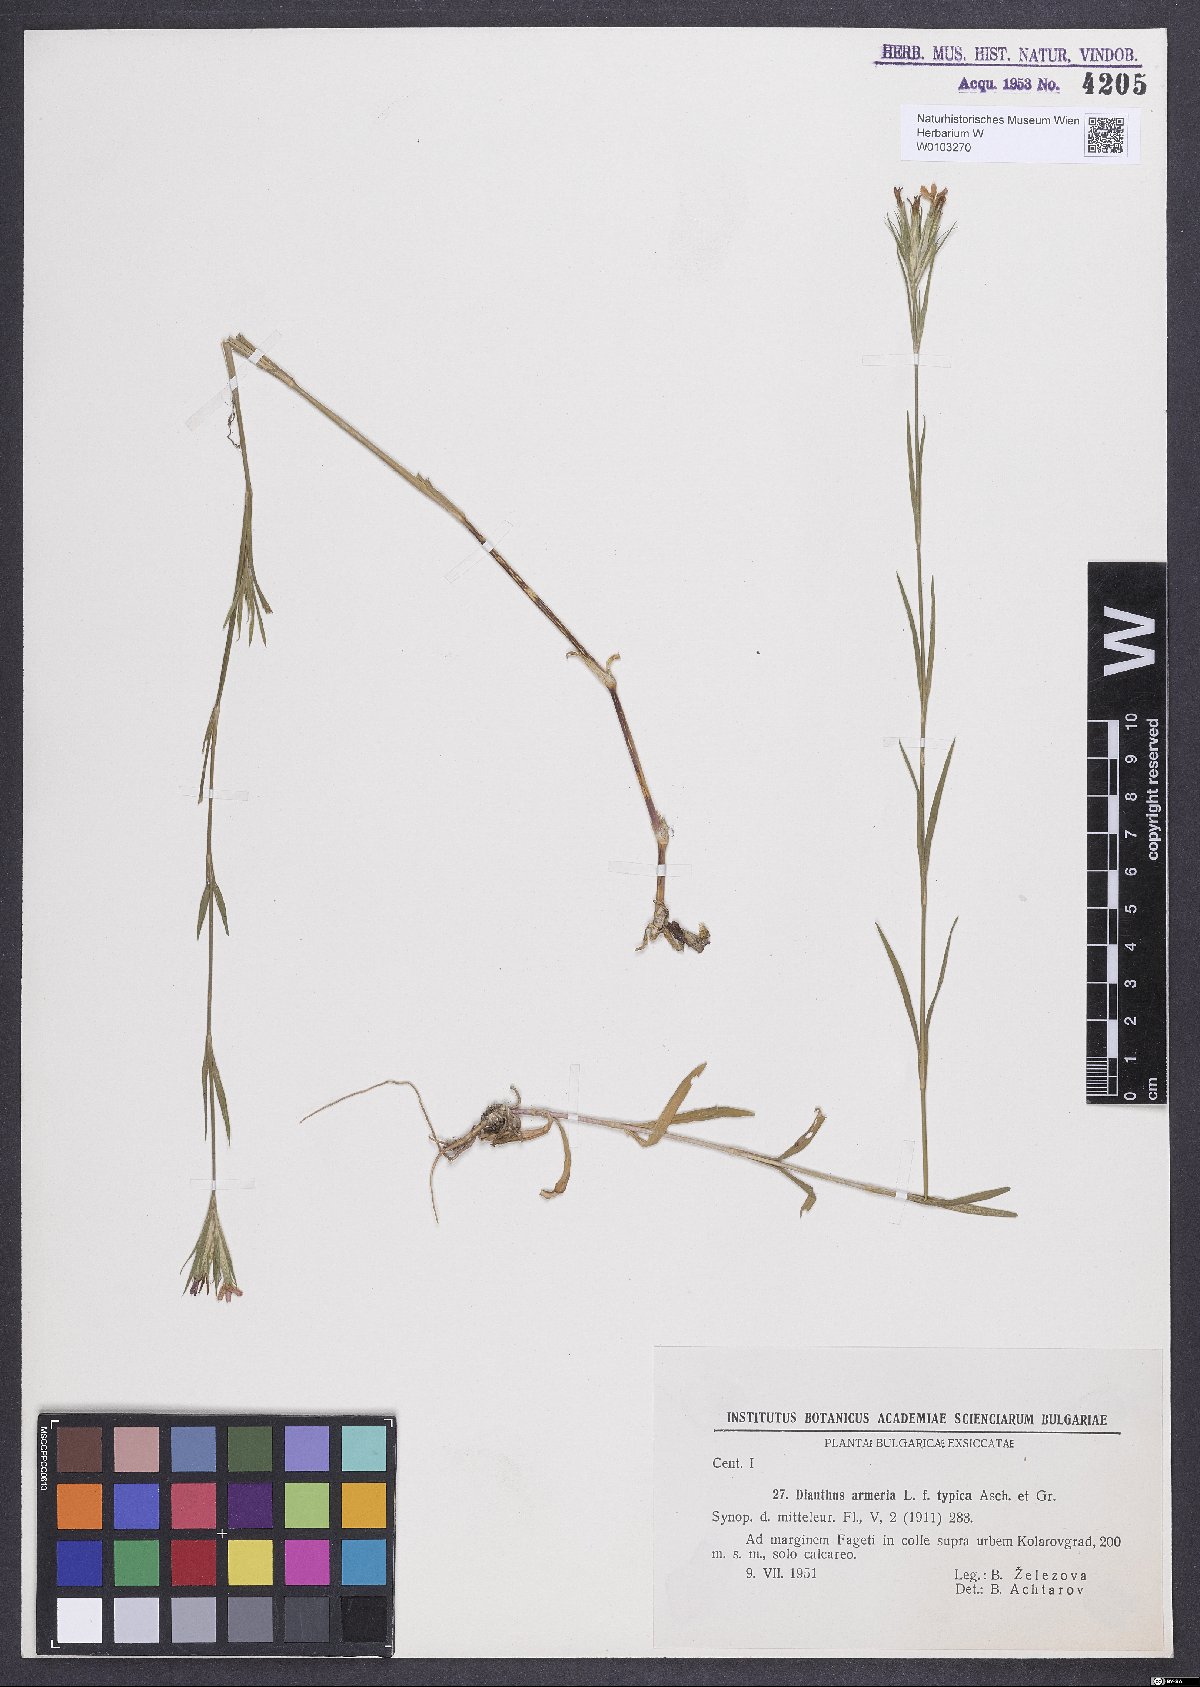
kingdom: Plantae
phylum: Tracheophyta
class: Magnoliopsida
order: Caryophyllales
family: Caryophyllaceae
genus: Dianthus
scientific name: Dianthus armeria
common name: Deptford pink
